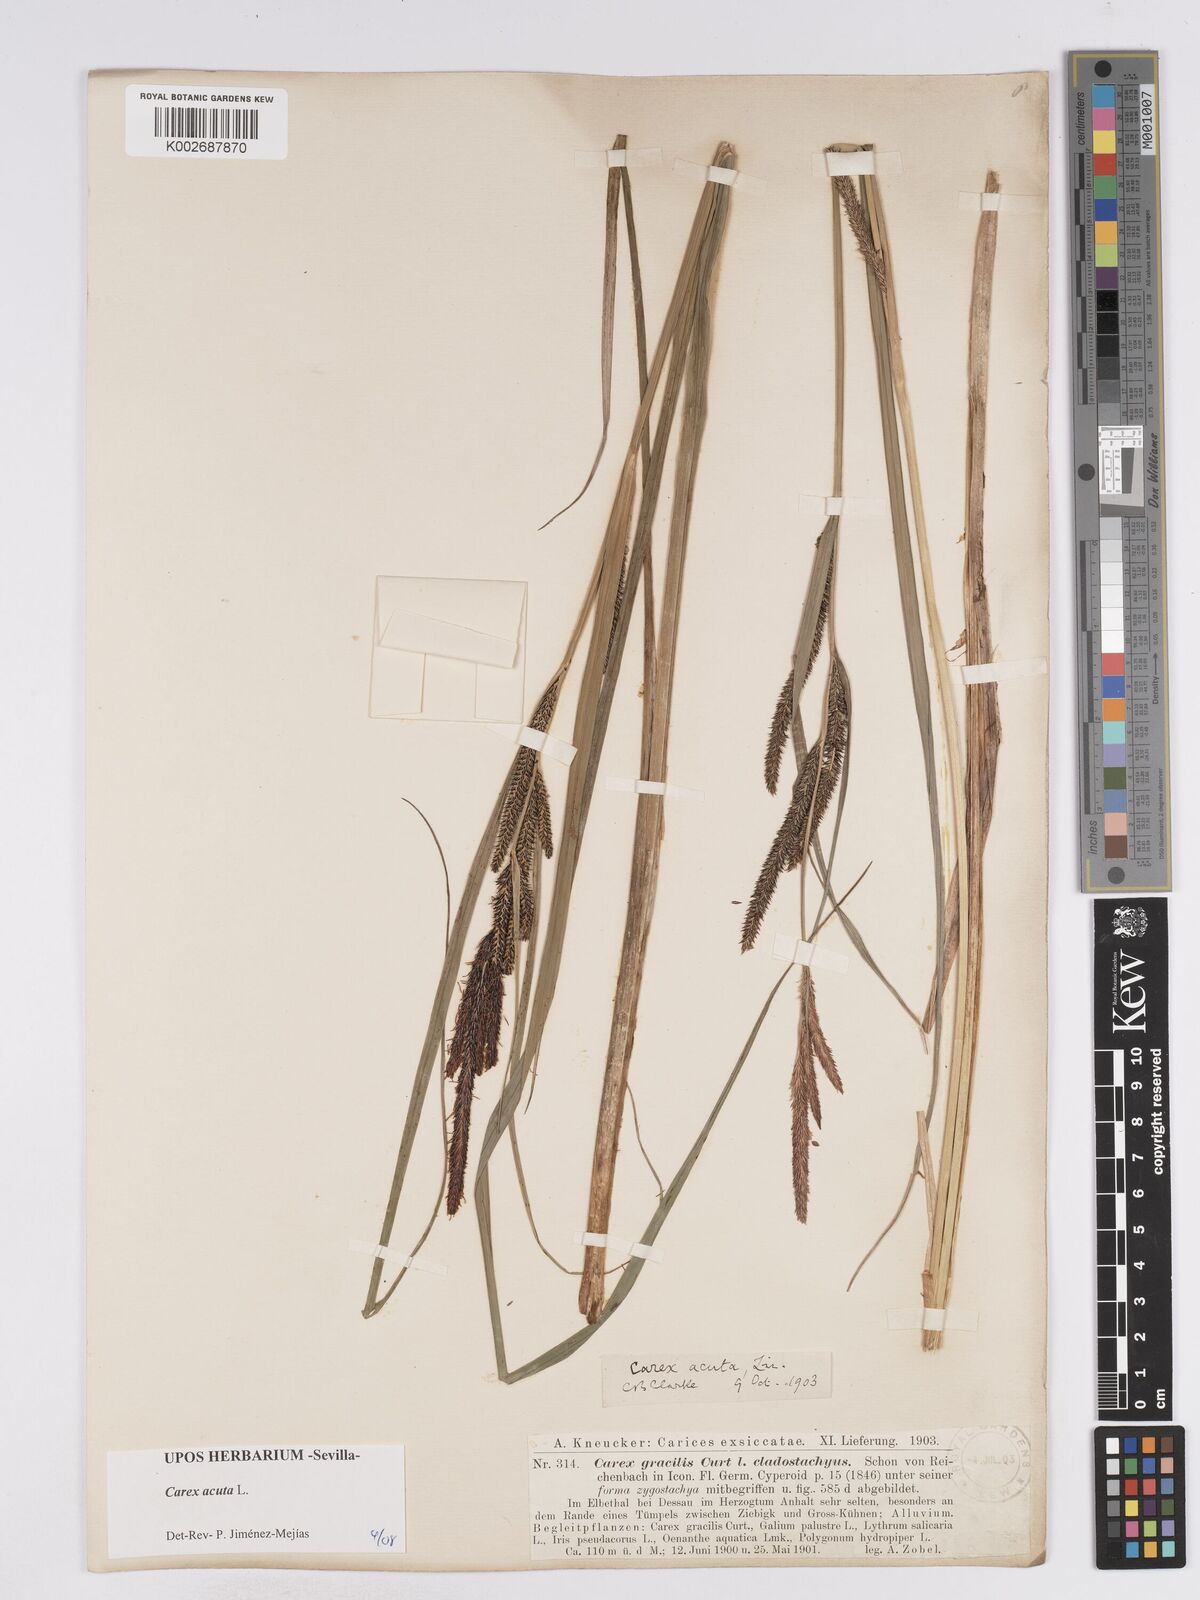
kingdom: Plantae
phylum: Tracheophyta
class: Liliopsida
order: Poales
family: Cyperaceae
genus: Carex
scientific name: Carex acuta
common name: Slender tufted-sedge
